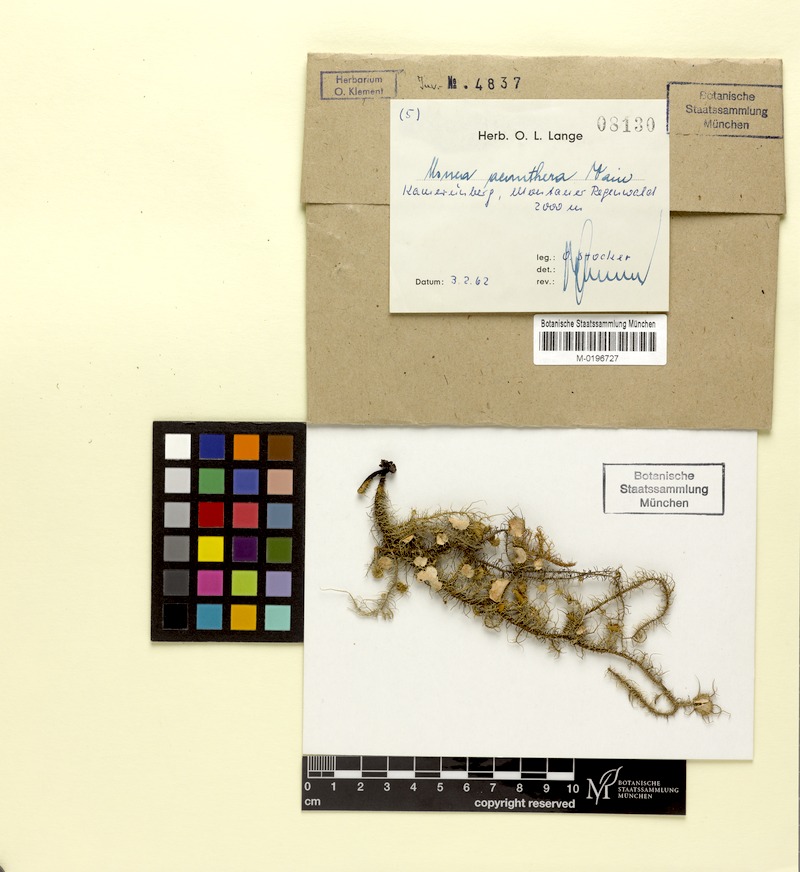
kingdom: Fungi
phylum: Ascomycota
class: Lecanoromycetes
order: Lecanorales
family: Parmeliaceae
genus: Usnea
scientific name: Usnea acanthera
